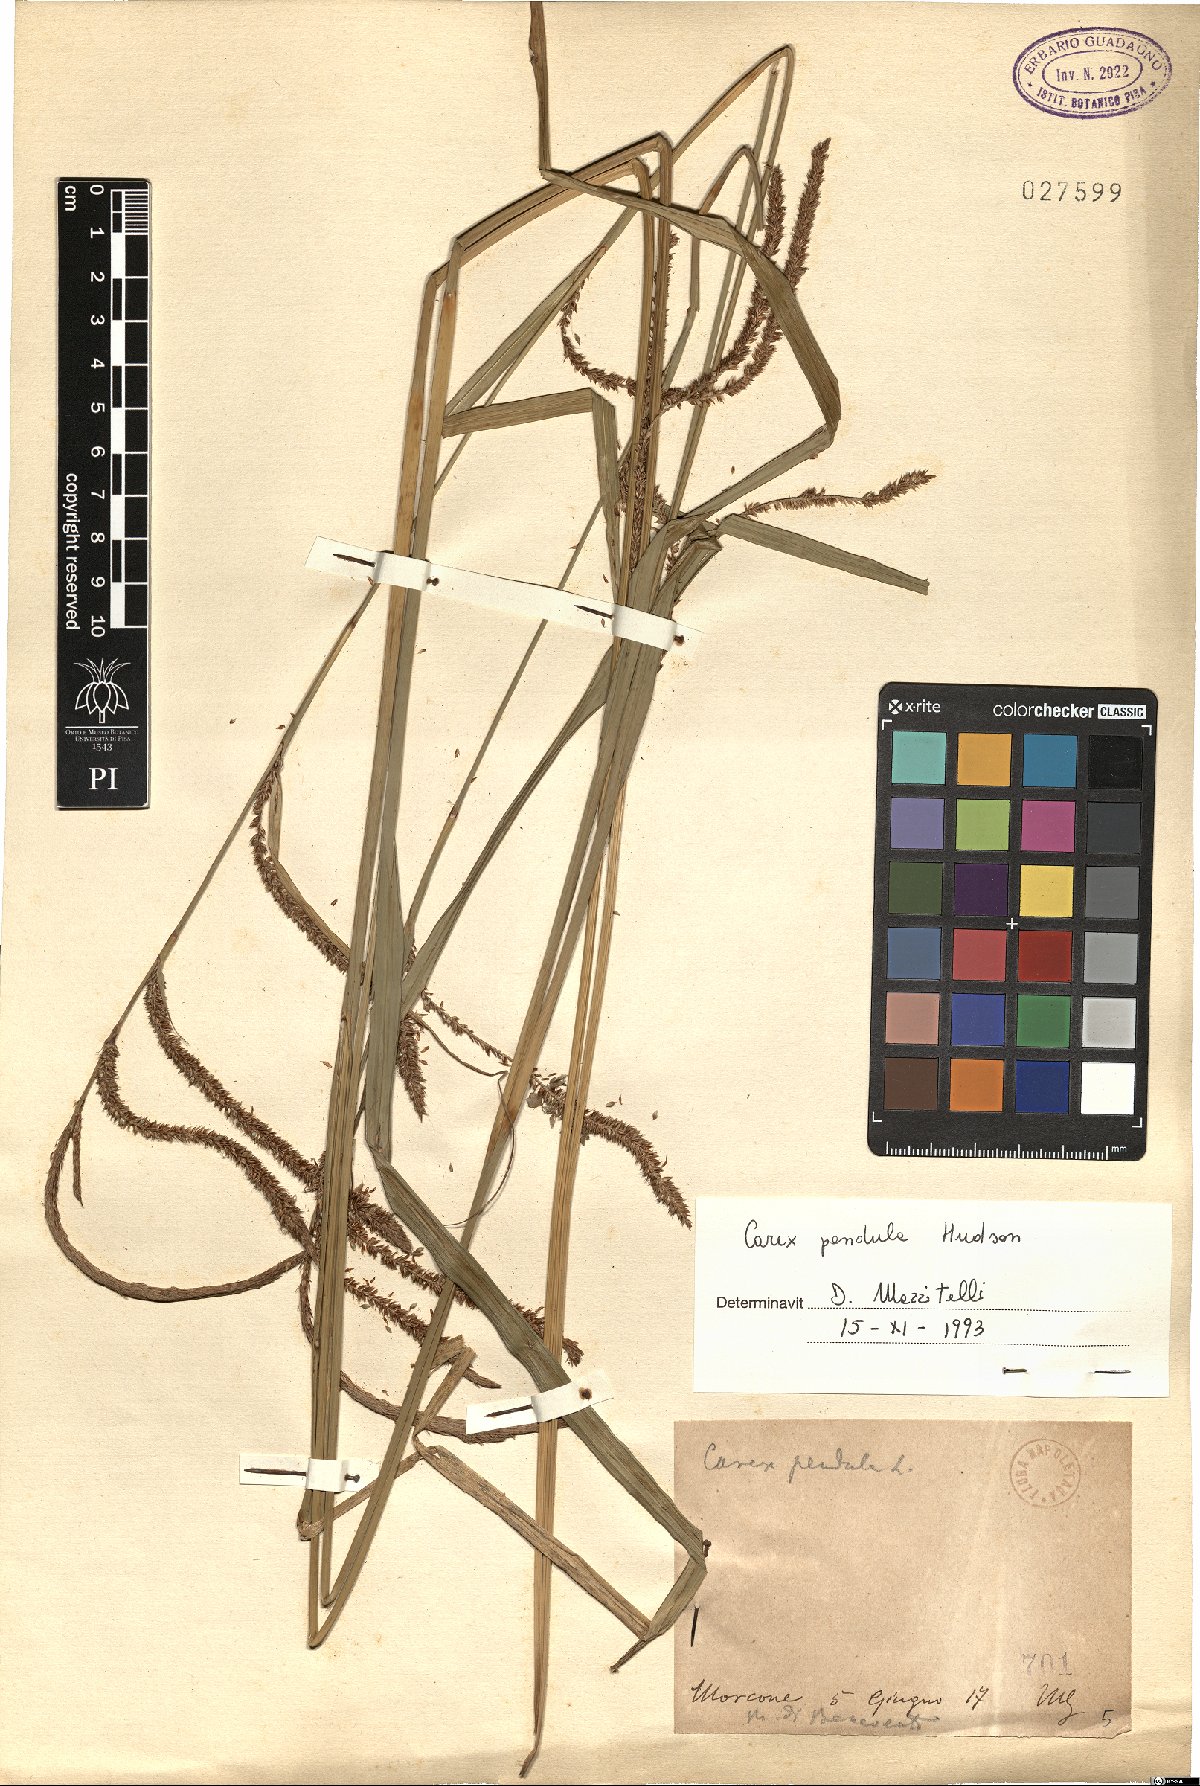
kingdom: Plantae
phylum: Tracheophyta
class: Liliopsida
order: Poales
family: Cyperaceae
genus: Carex
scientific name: Carex pendula
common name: Pendulous sedge
